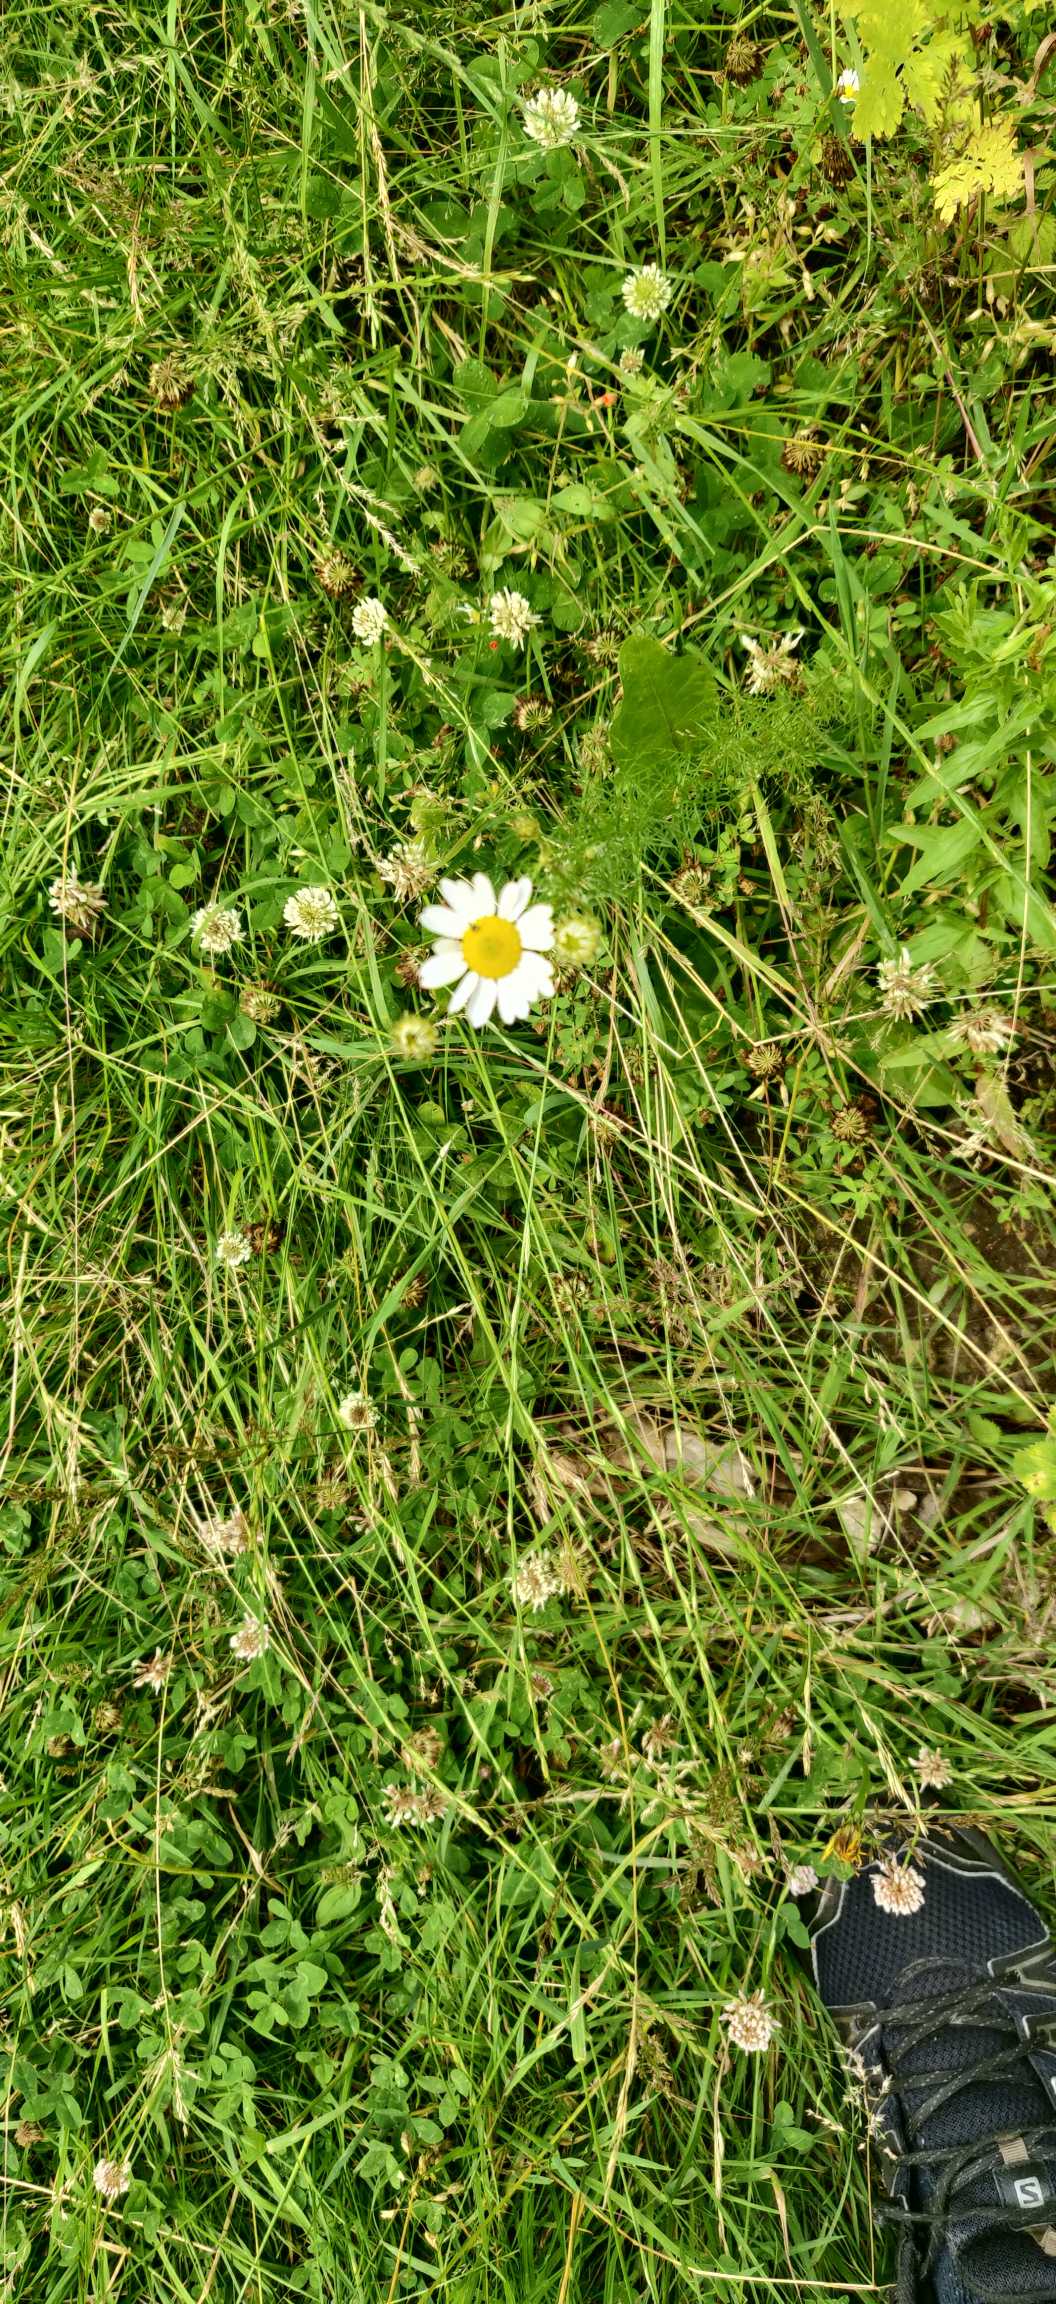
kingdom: Plantae
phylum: Tracheophyta
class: Magnoliopsida
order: Asterales
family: Asteraceae
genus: Tripleurospermum
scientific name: Tripleurospermum inodorum
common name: Lugtløs kamille
